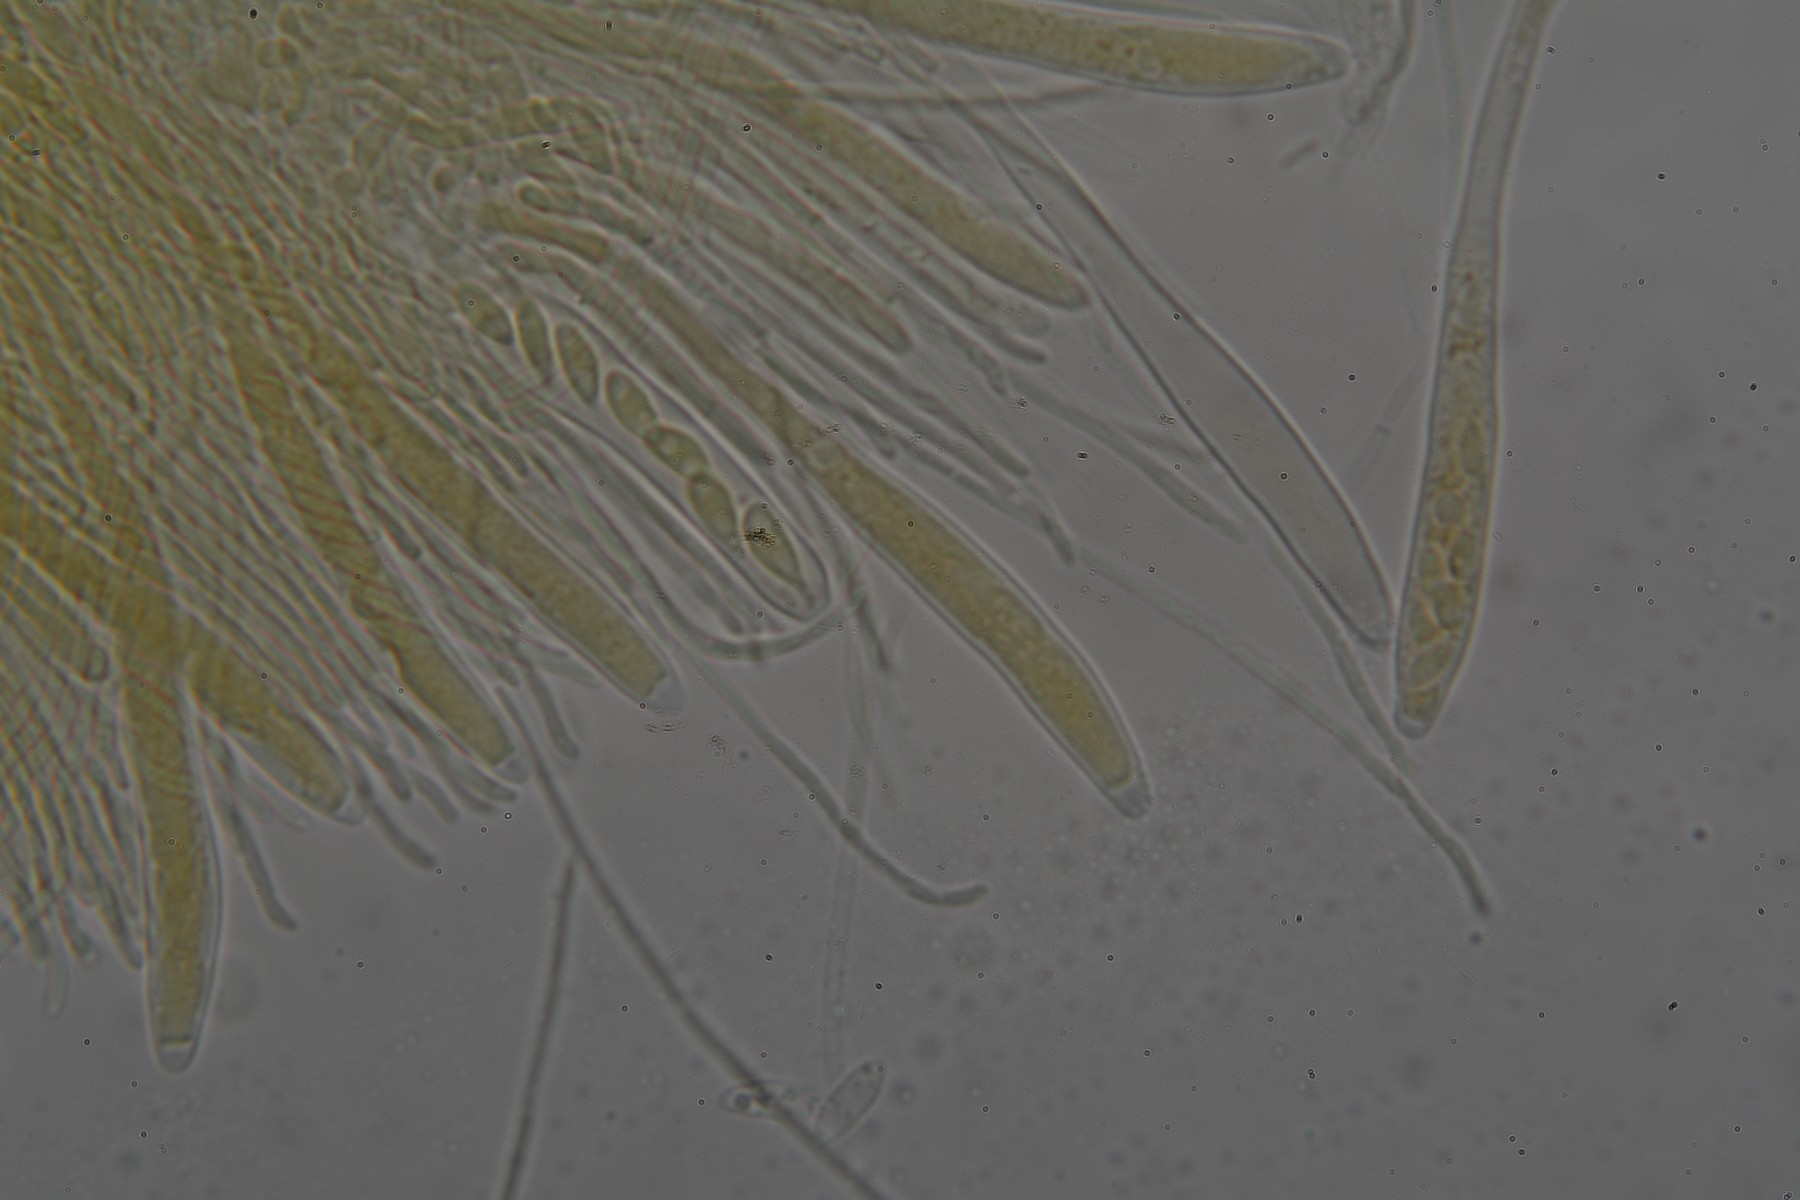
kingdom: Fungi
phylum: Ascomycota
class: Leotiomycetes
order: Helotiales
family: Tricladiaceae
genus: Cudoniella
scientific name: Cudoniella tenuispora
